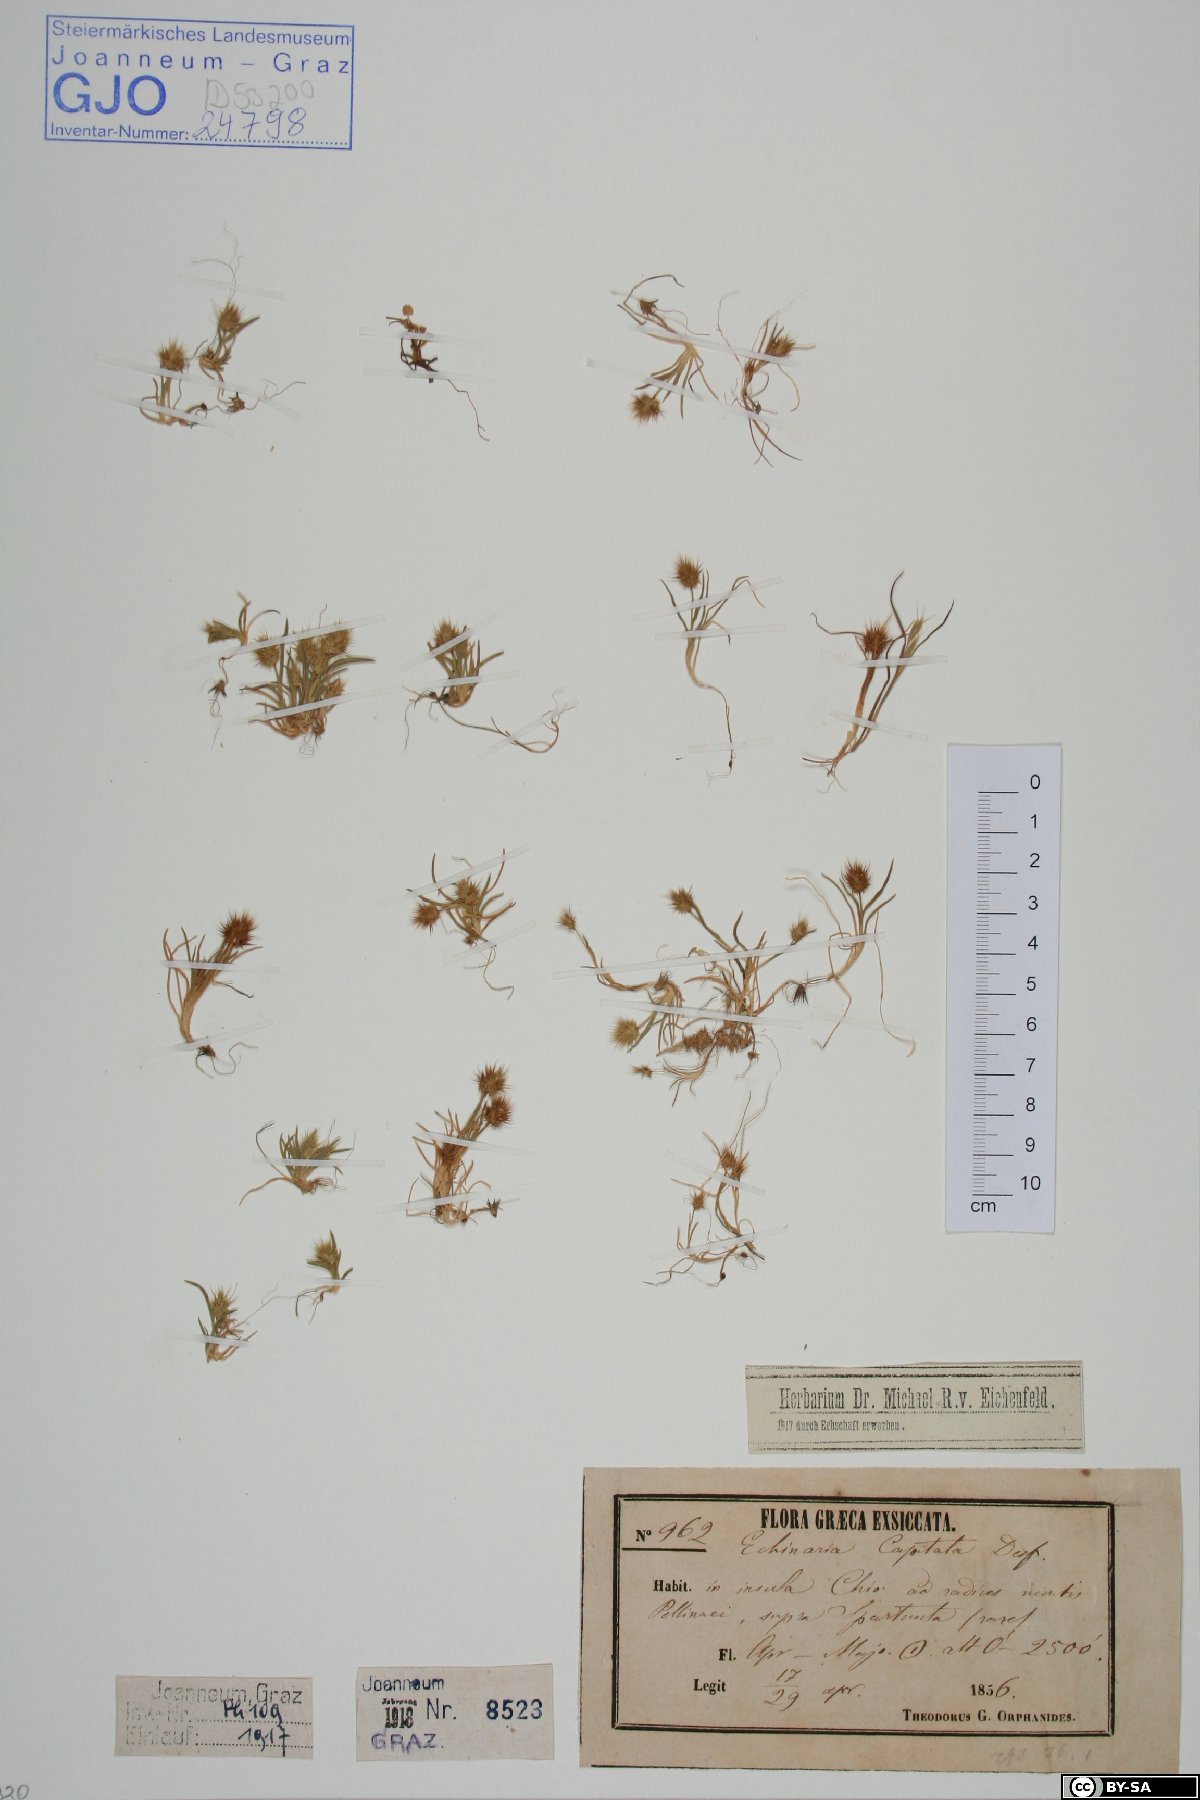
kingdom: Plantae
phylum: Tracheophyta
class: Liliopsida
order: Poales
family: Poaceae
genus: Echinaria
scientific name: Echinaria capitata
